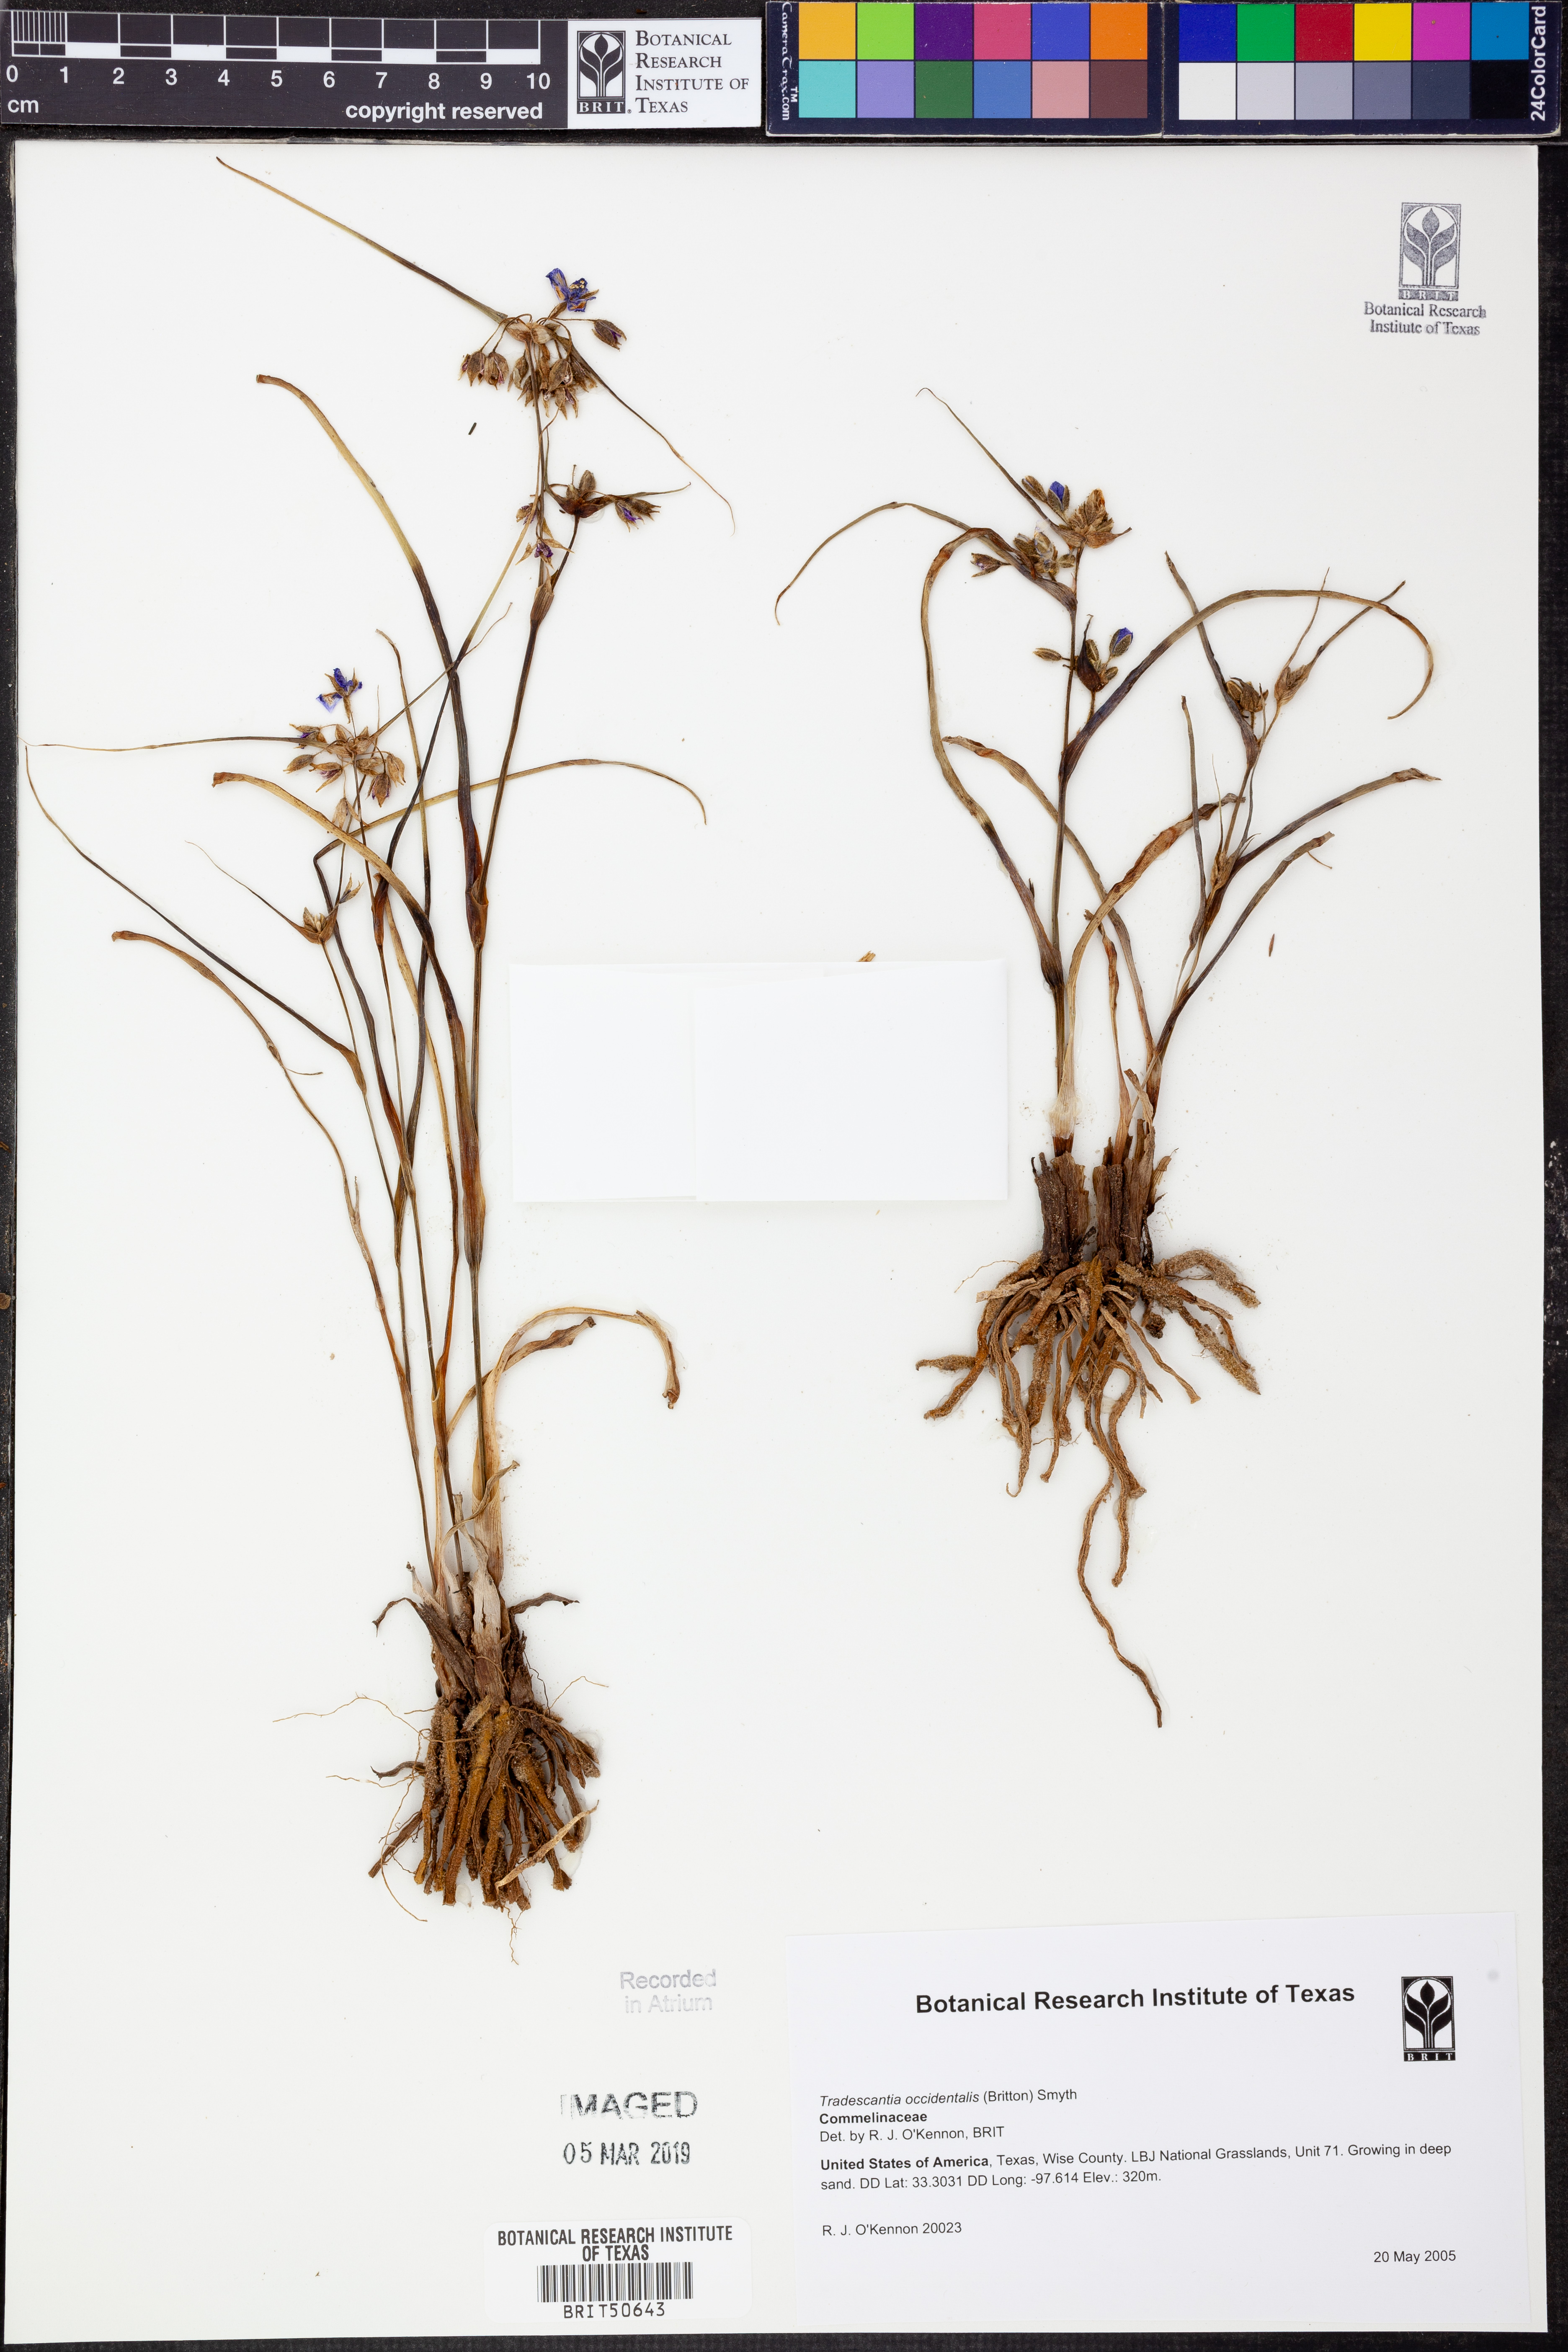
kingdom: Plantae
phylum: Tracheophyta
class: Liliopsida
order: Commelinales
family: Commelinaceae
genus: Tradescantia
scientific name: Tradescantia occidentalis
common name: Prairie spiderwort
